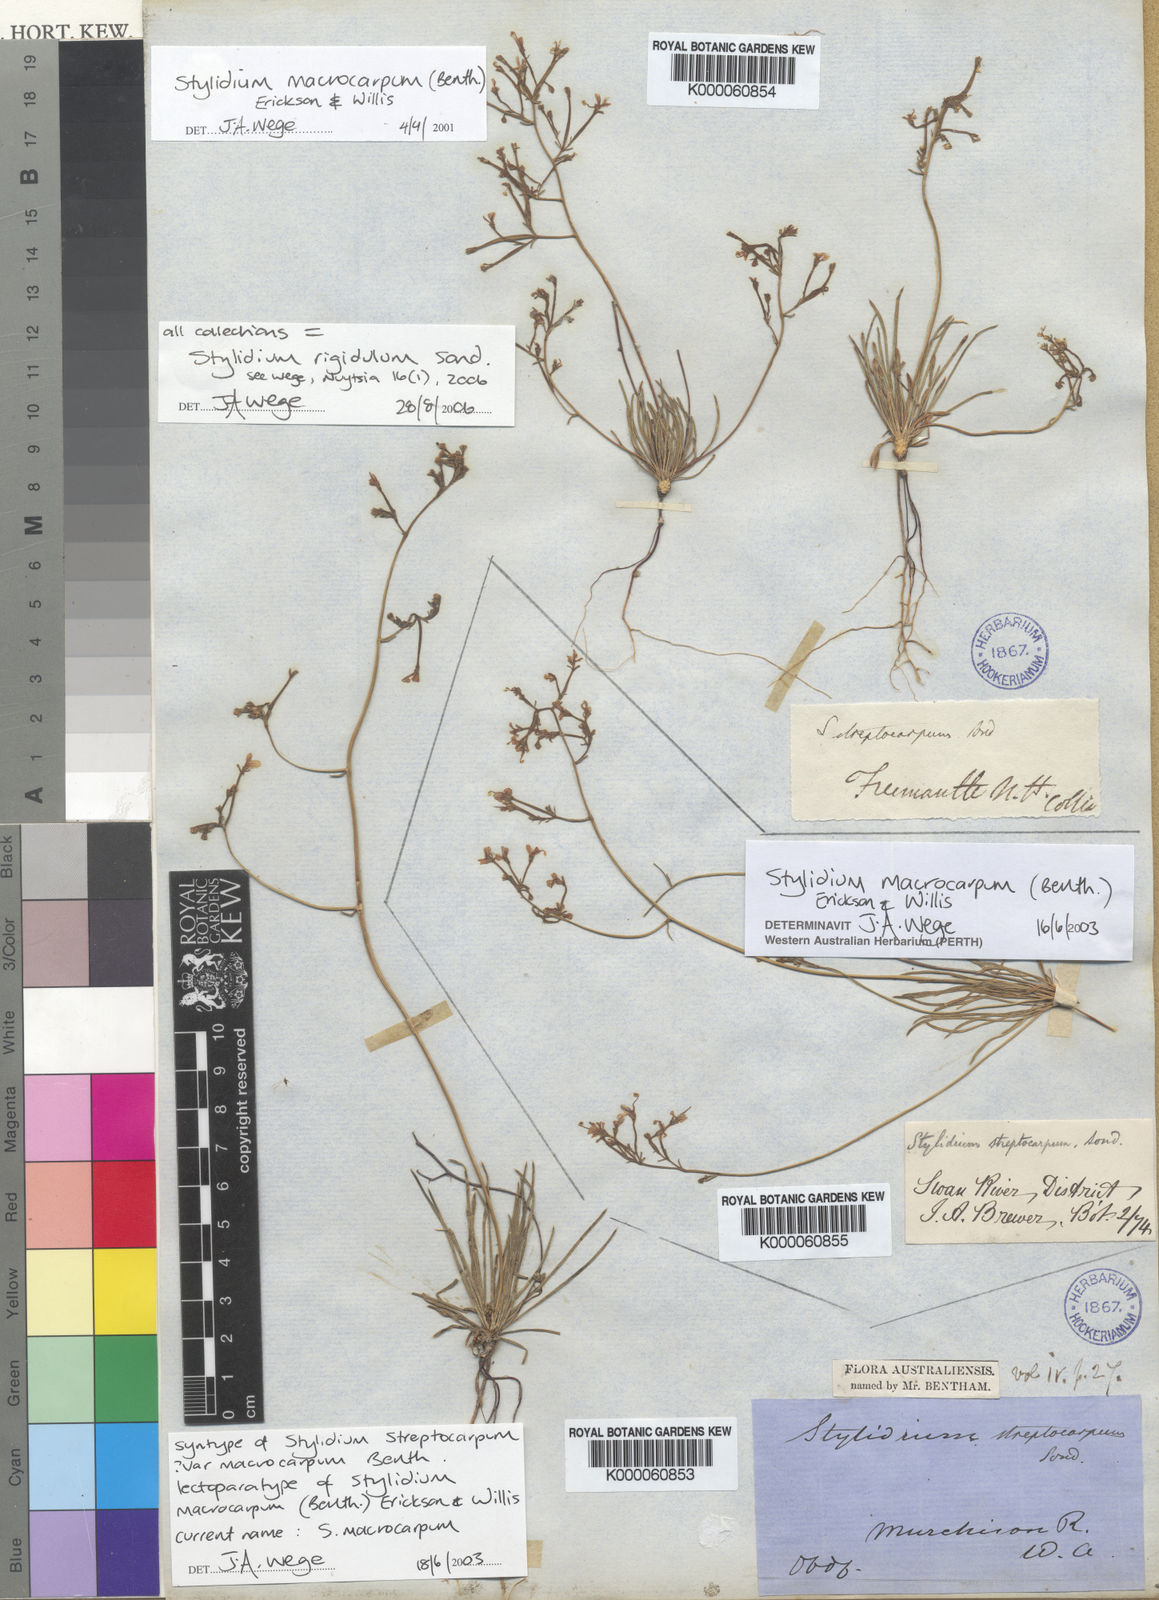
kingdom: Plantae
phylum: Tracheophyta
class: Magnoliopsida
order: Asterales
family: Stylidiaceae
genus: Stylidium
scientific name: Stylidium rigidulum
